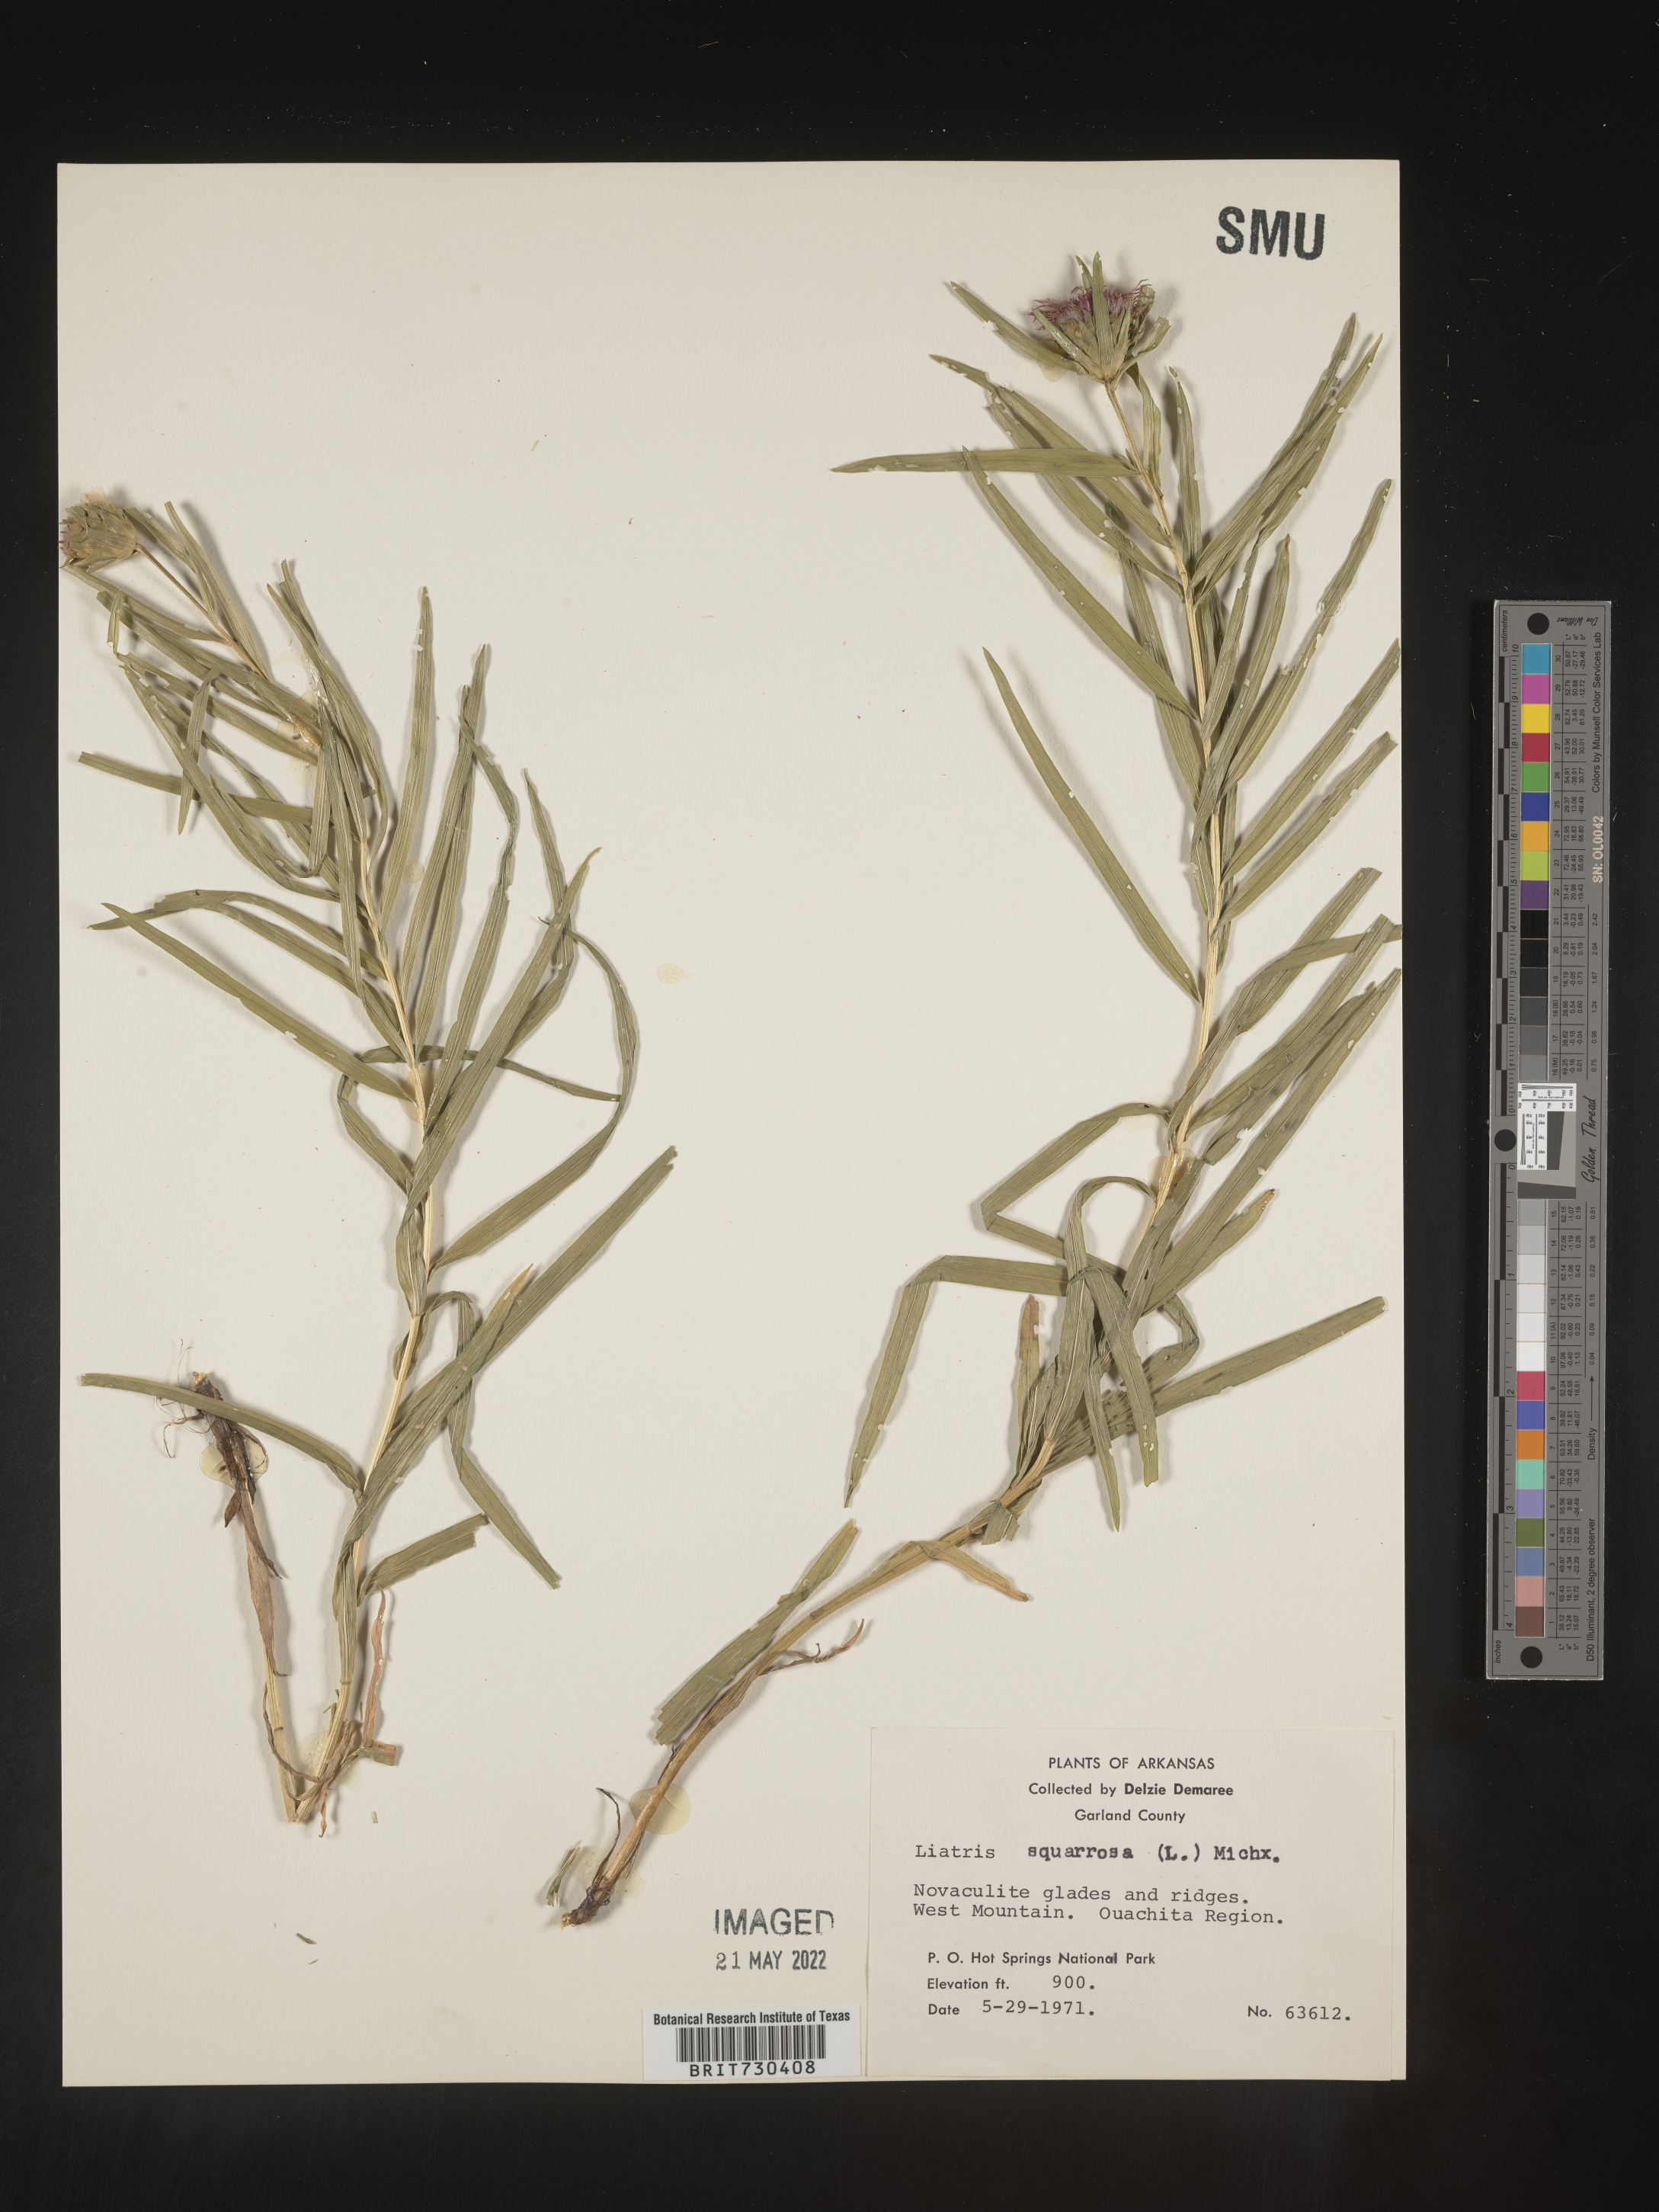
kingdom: Plantae
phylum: Tracheophyta
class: Magnoliopsida
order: Asterales
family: Asteraceae
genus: Liatris
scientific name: Liatris compacta
